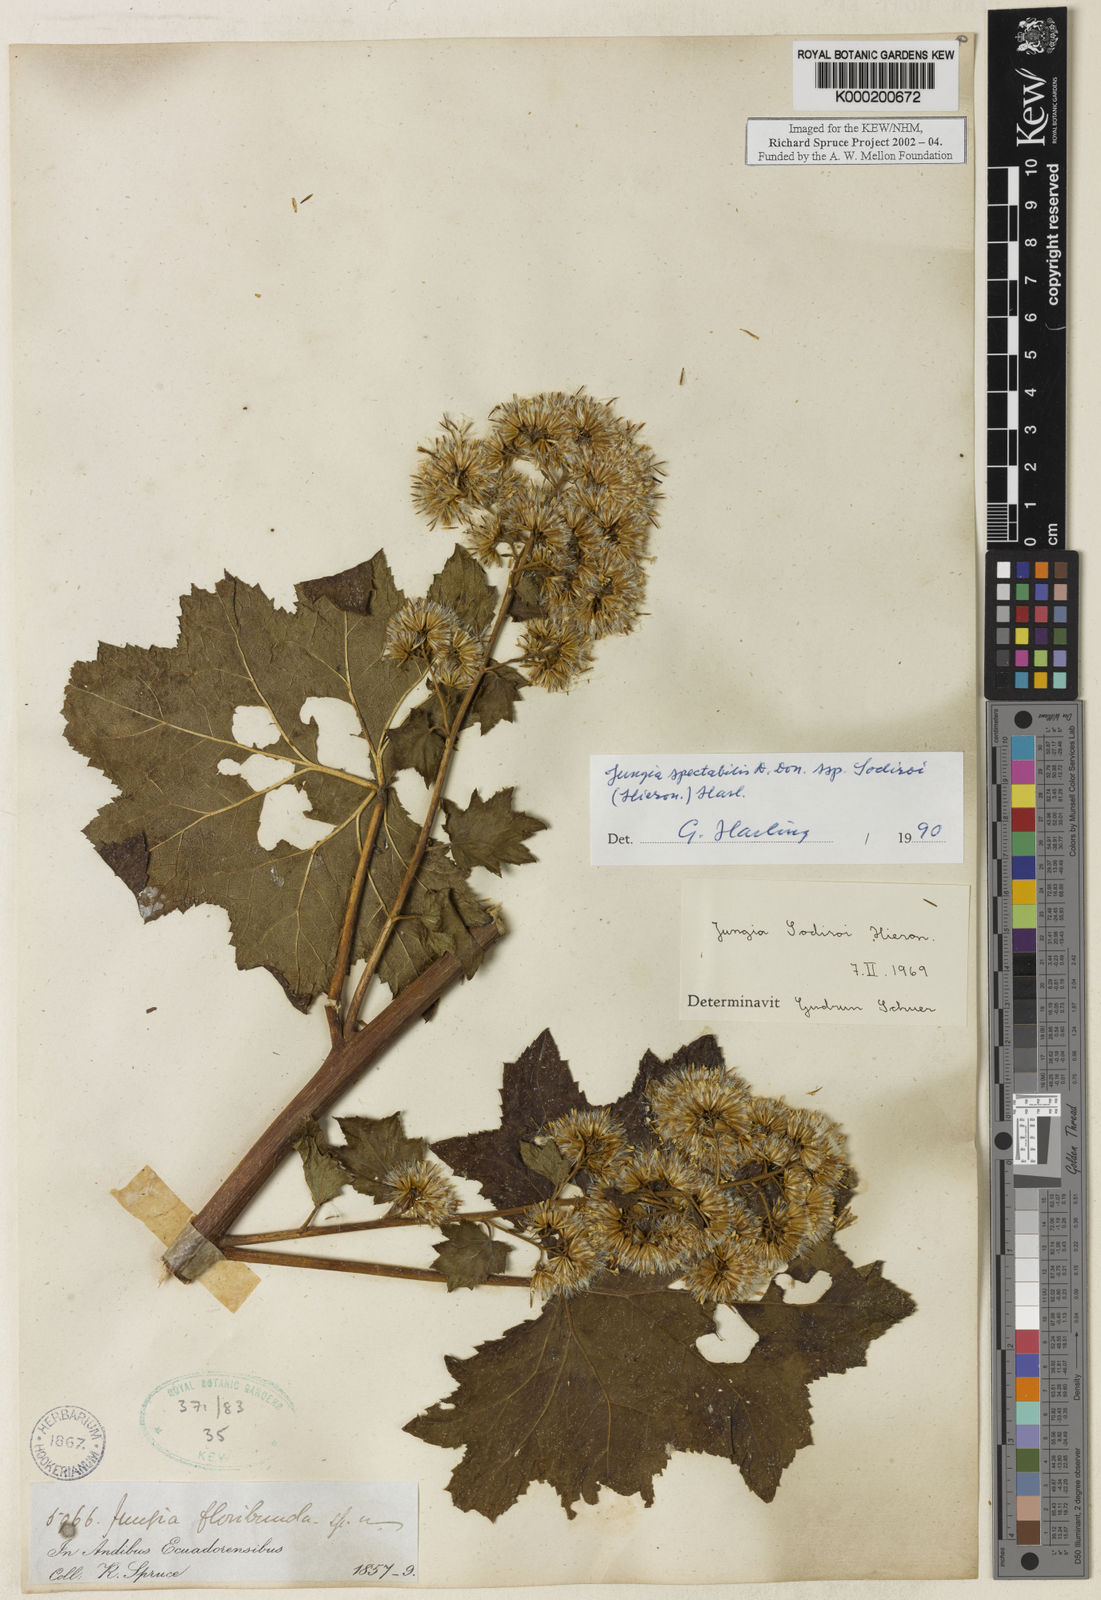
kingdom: Plantae
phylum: Tracheophyta
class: Magnoliopsida
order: Asterales
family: Asteraceae
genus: Jungia
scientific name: Jungia spectabilis
